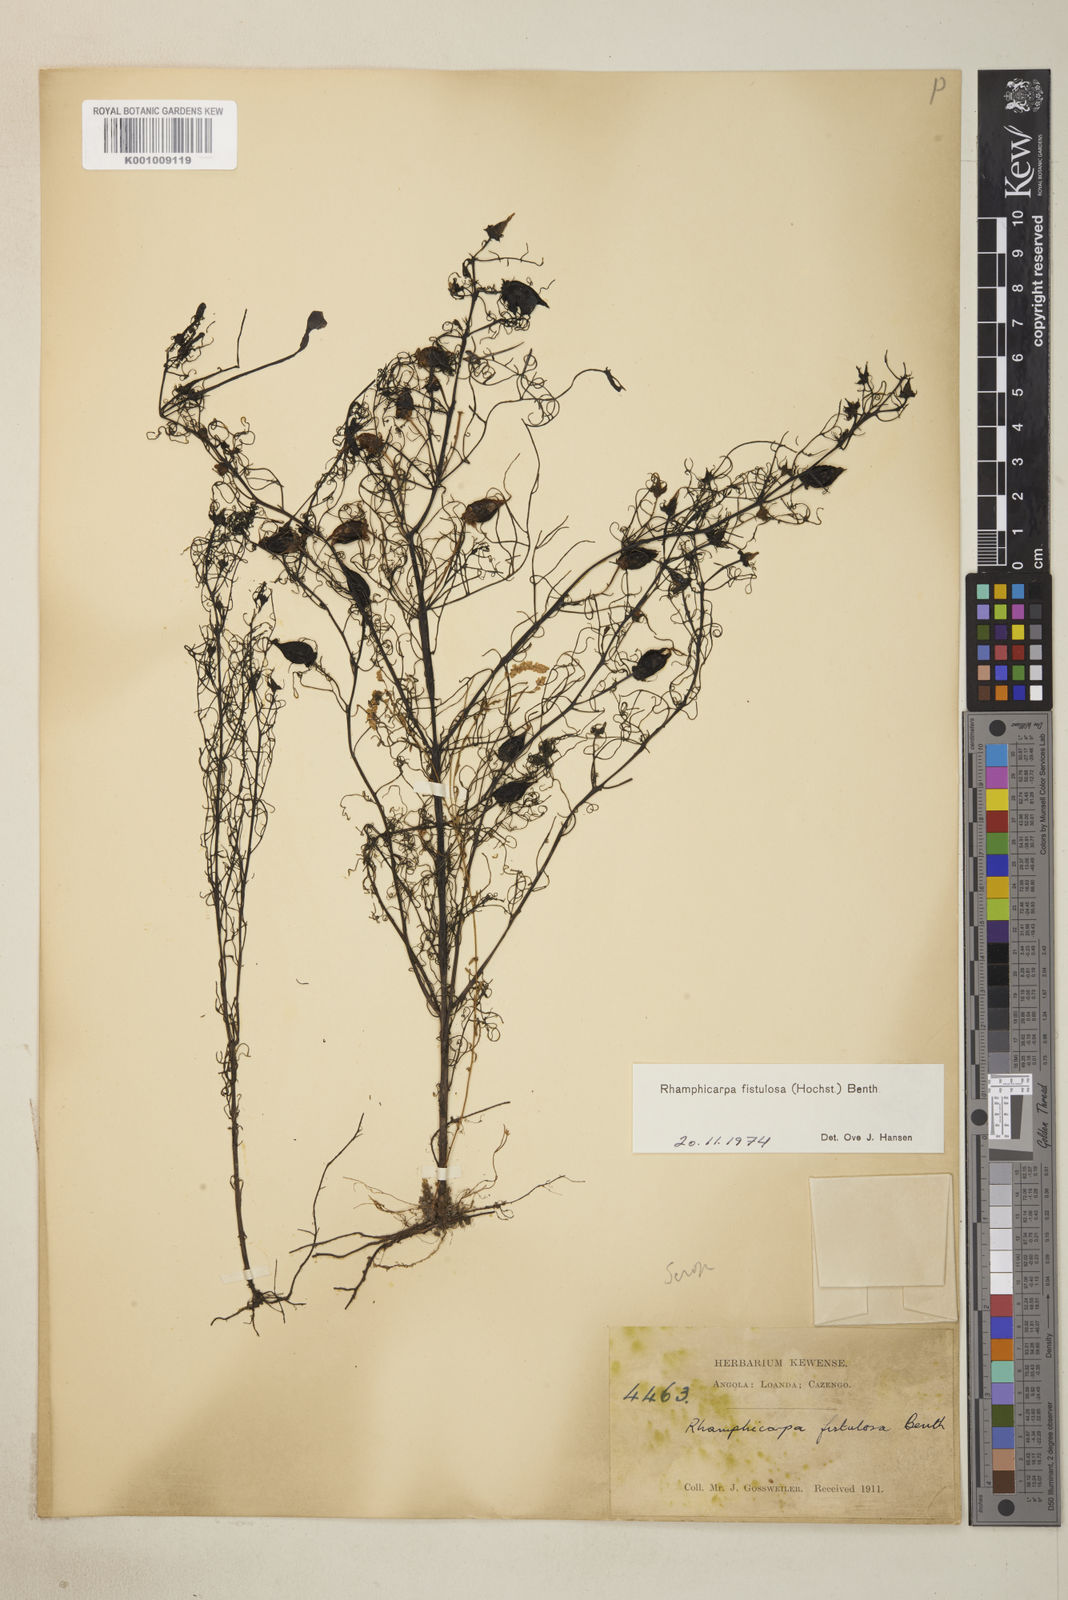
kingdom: Plantae
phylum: Tracheophyta
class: Magnoliopsida
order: Lamiales
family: Orobanchaceae
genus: Rhamphicarpa
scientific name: Rhamphicarpa fistulosa
